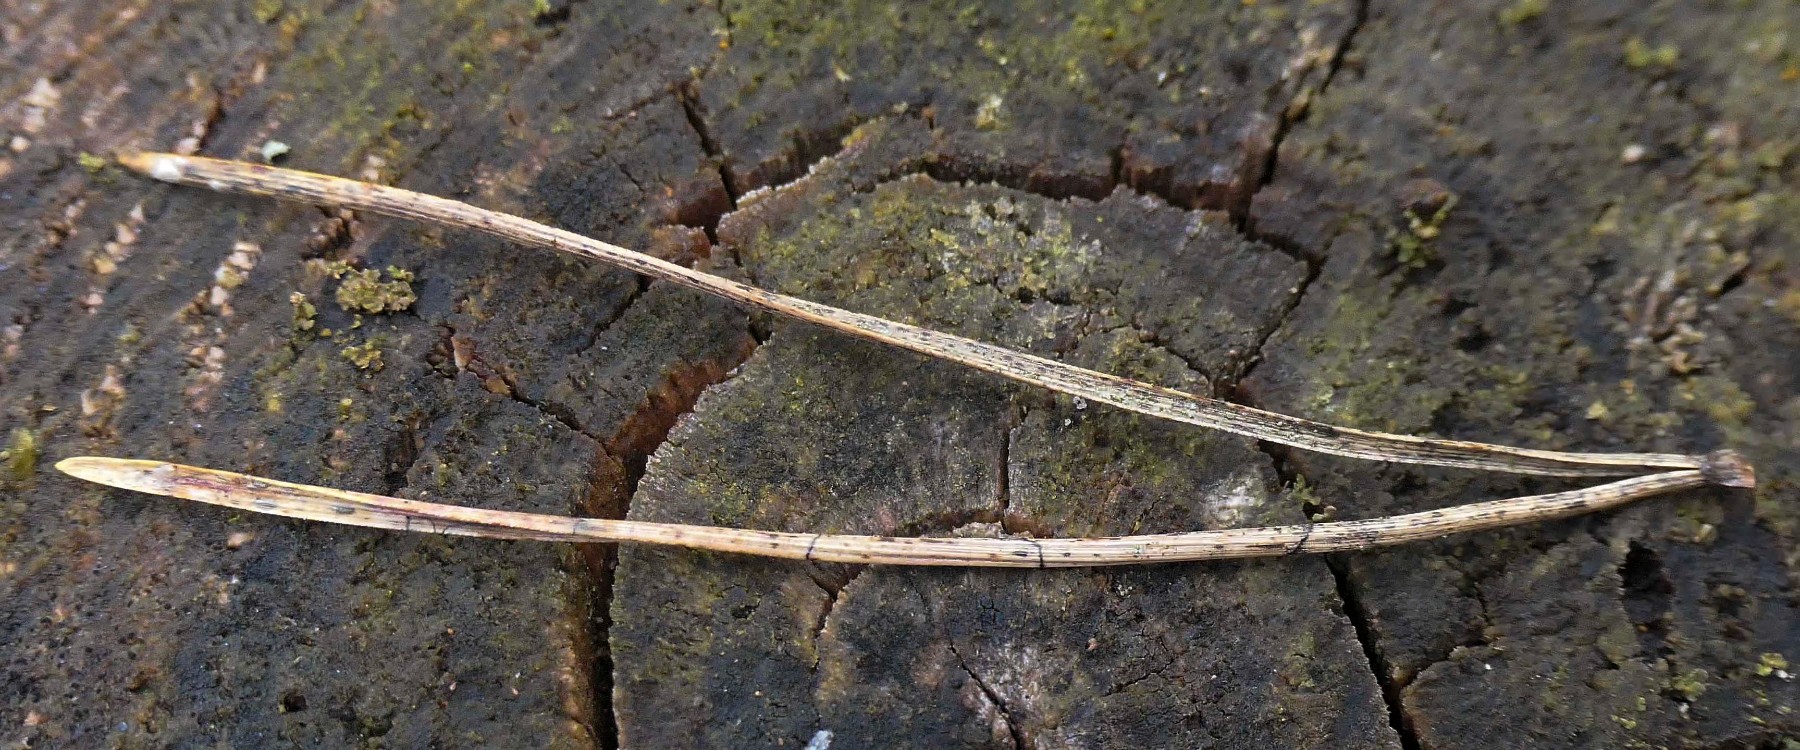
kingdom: Fungi
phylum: Ascomycota
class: Leotiomycetes
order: Rhytismatales
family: Rhytismataceae
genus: Lophodermium
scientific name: Lophodermium pinastri
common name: fyrre-fureplet
